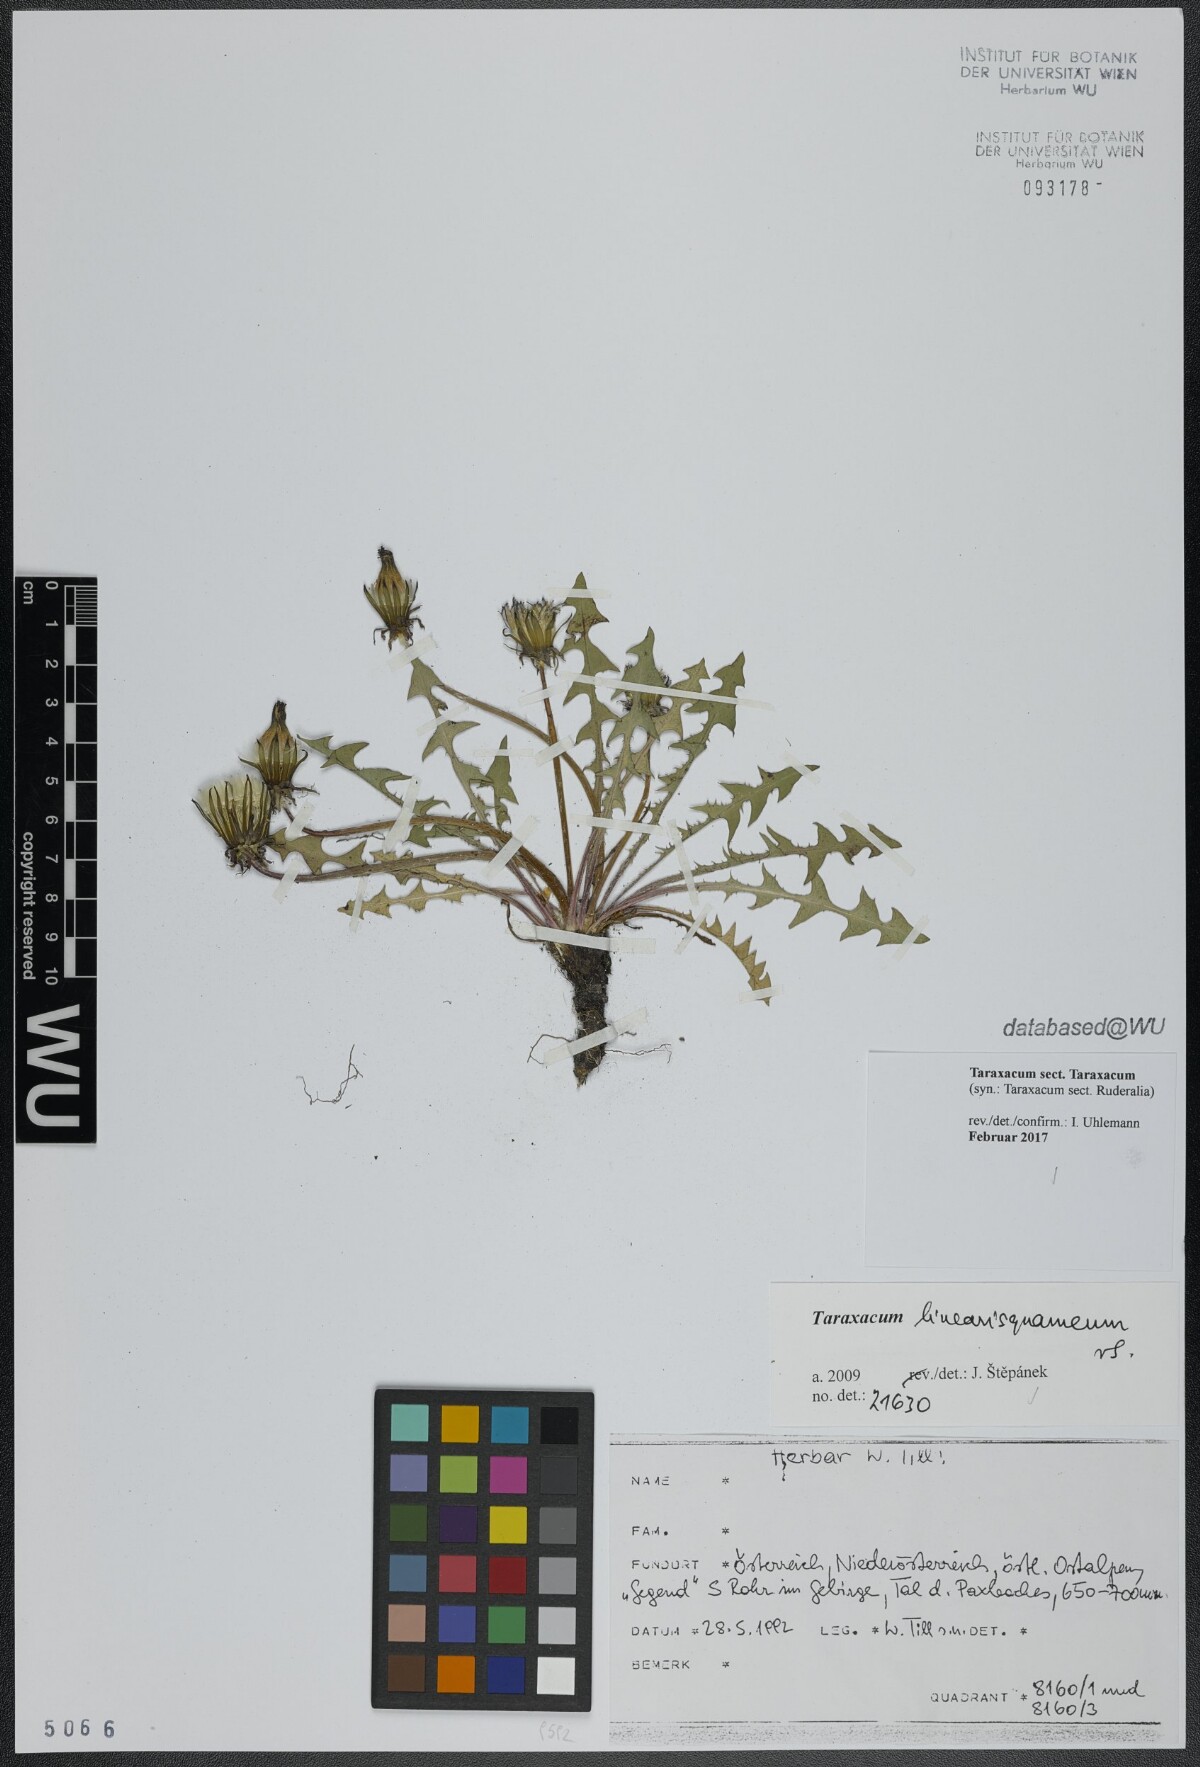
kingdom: Plantae
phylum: Tracheophyta
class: Magnoliopsida
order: Asterales
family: Asteraceae
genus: Taraxacum
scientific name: Taraxacum
